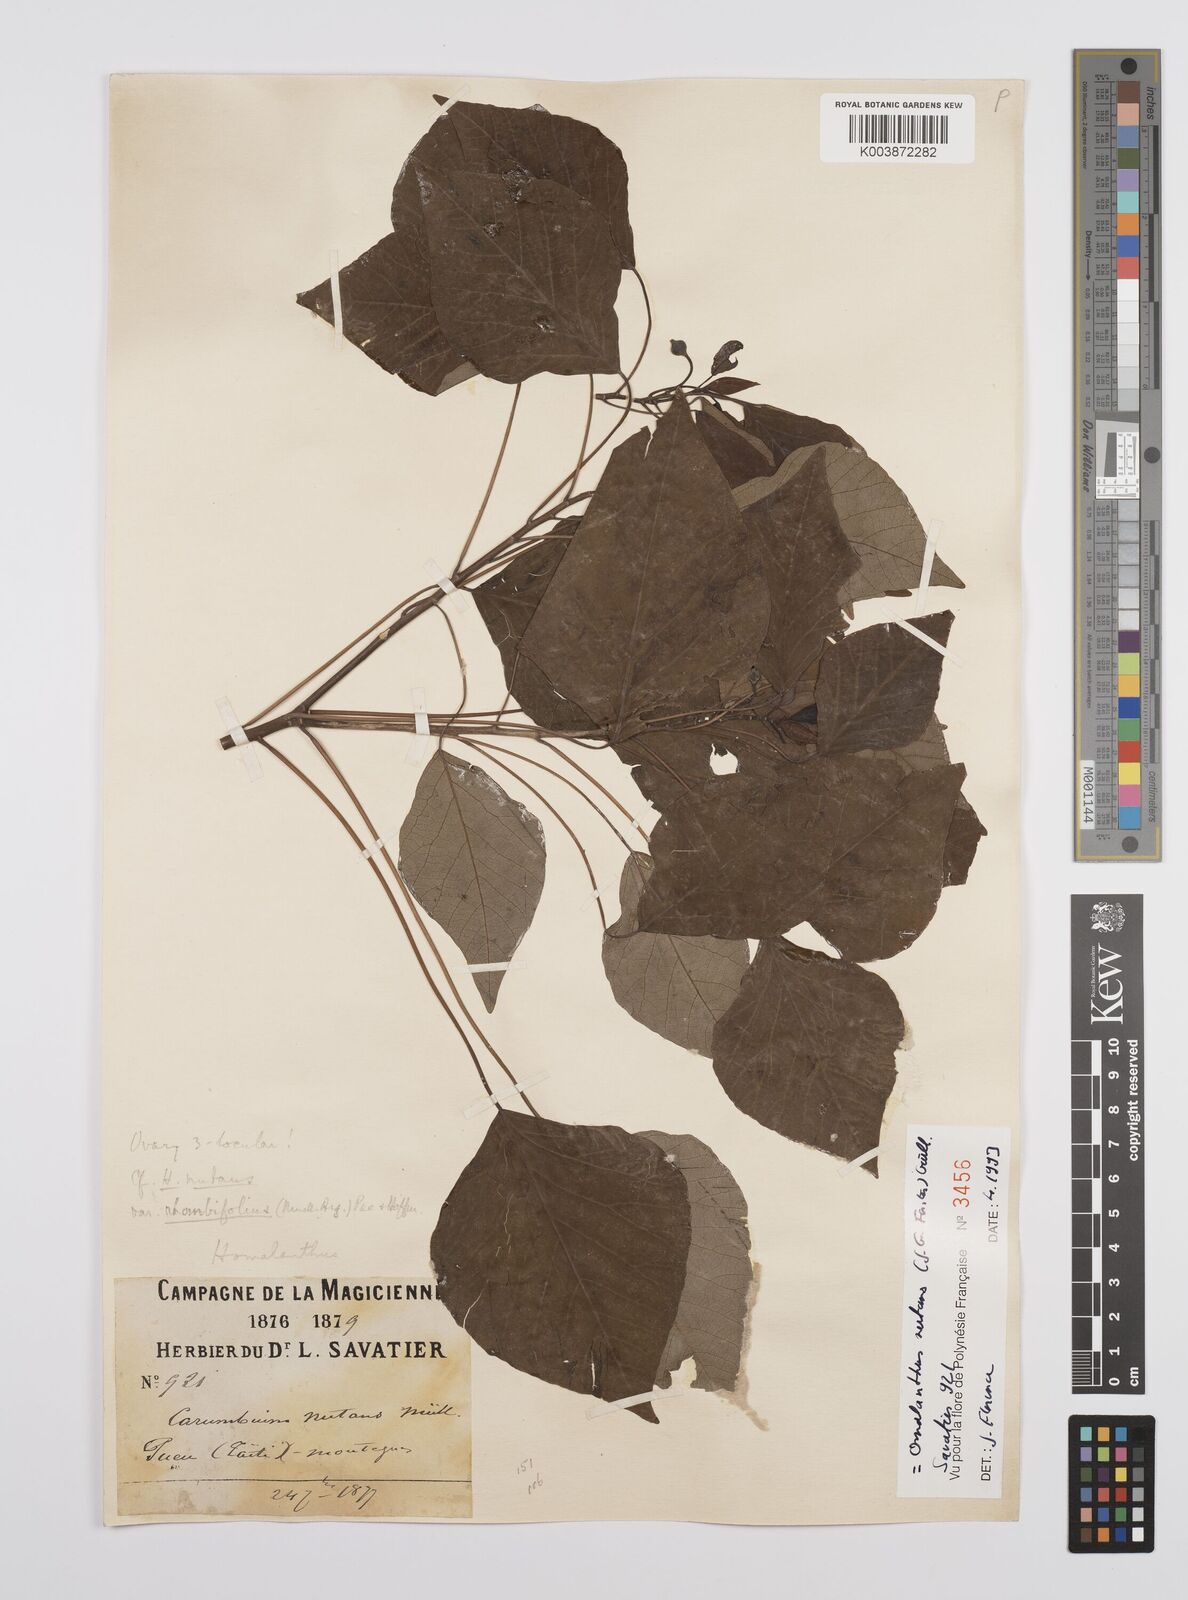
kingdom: Plantae
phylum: Tracheophyta
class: Magnoliopsida
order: Malpighiales
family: Euphorbiaceae
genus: Homalanthus
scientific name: Homalanthus nutans
